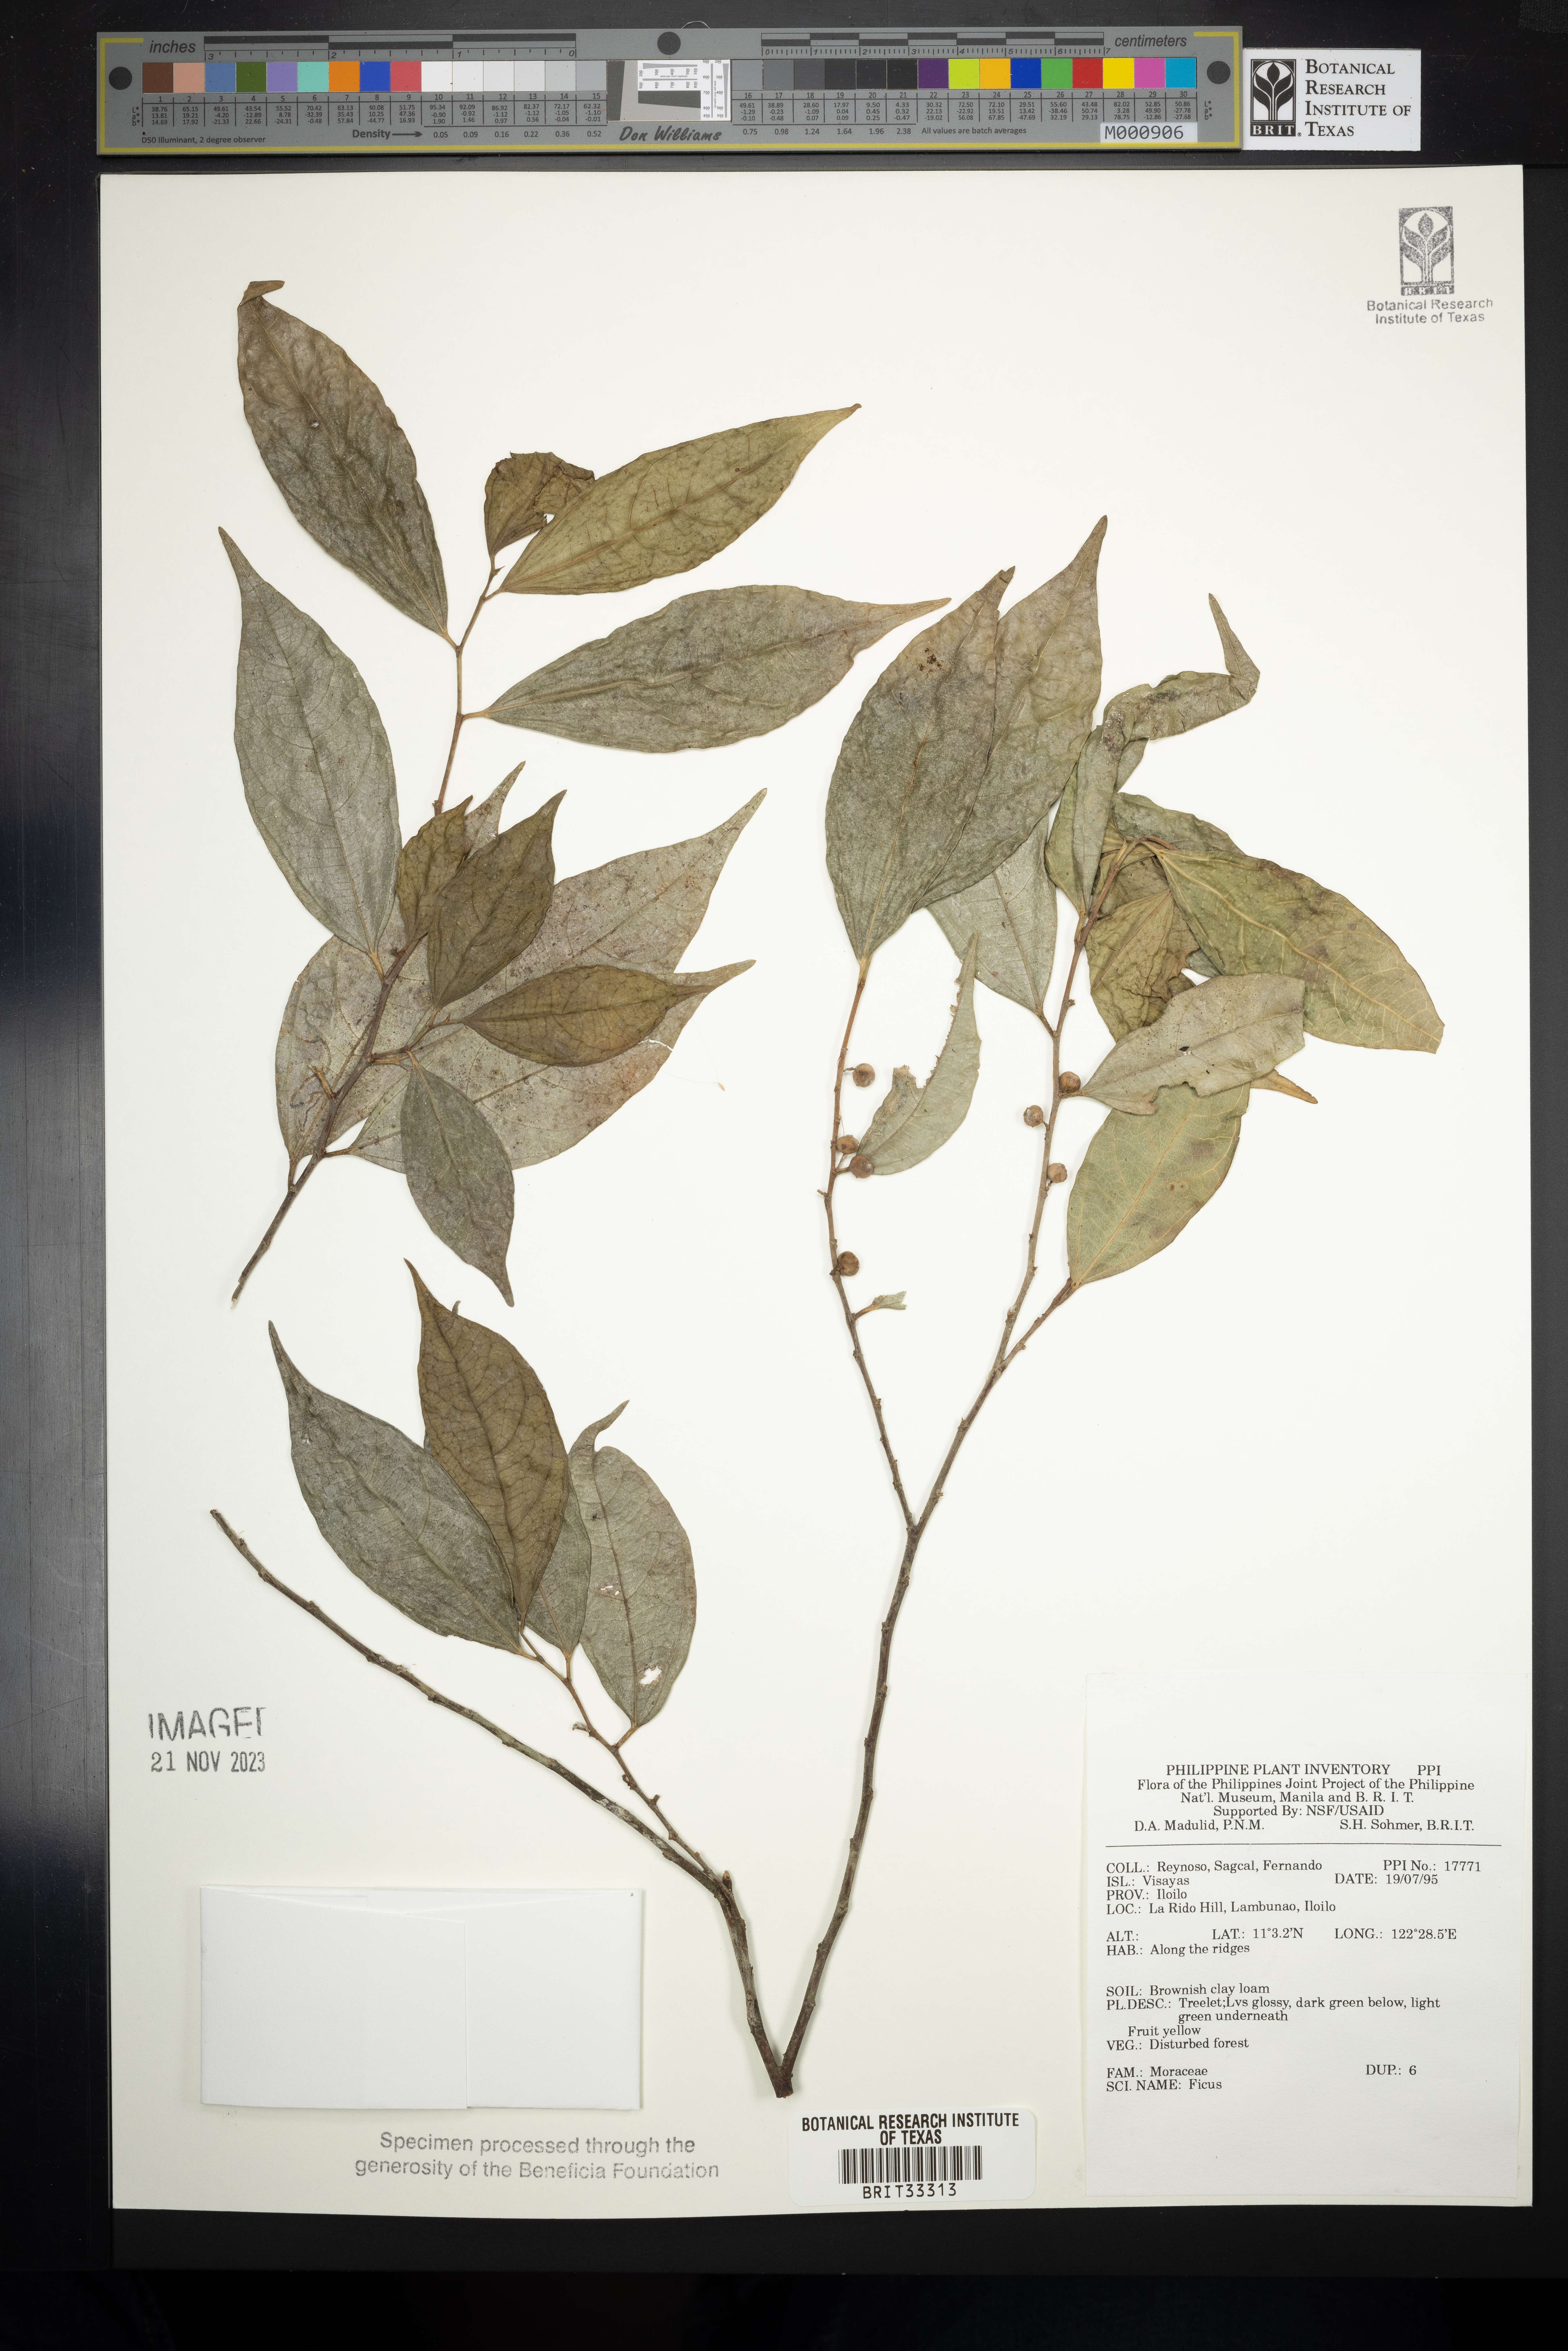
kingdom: Plantae
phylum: Tracheophyta
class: Magnoliopsida
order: Rosales
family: Moraceae
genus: Ficus
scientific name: Ficus
